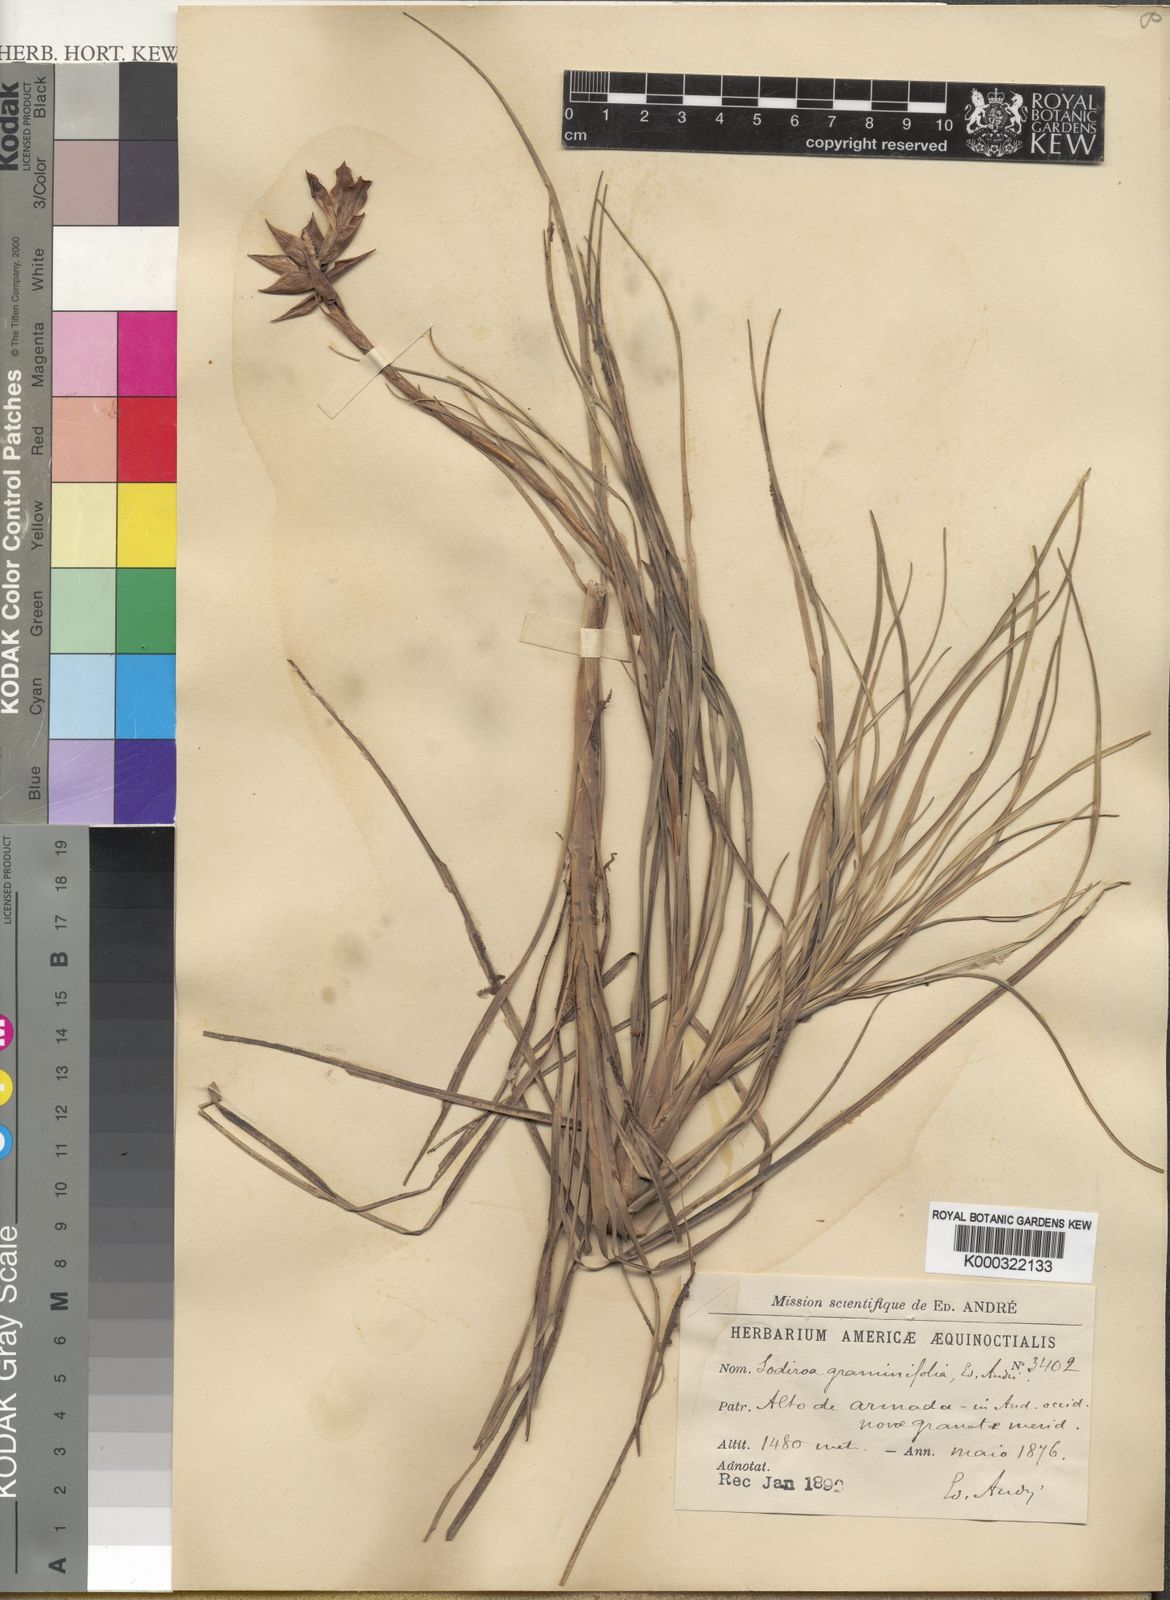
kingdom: Plantae
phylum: Tracheophyta
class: Liliopsida
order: Poales
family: Bromeliaceae
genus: Guzmania
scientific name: Guzmania graminifolia
